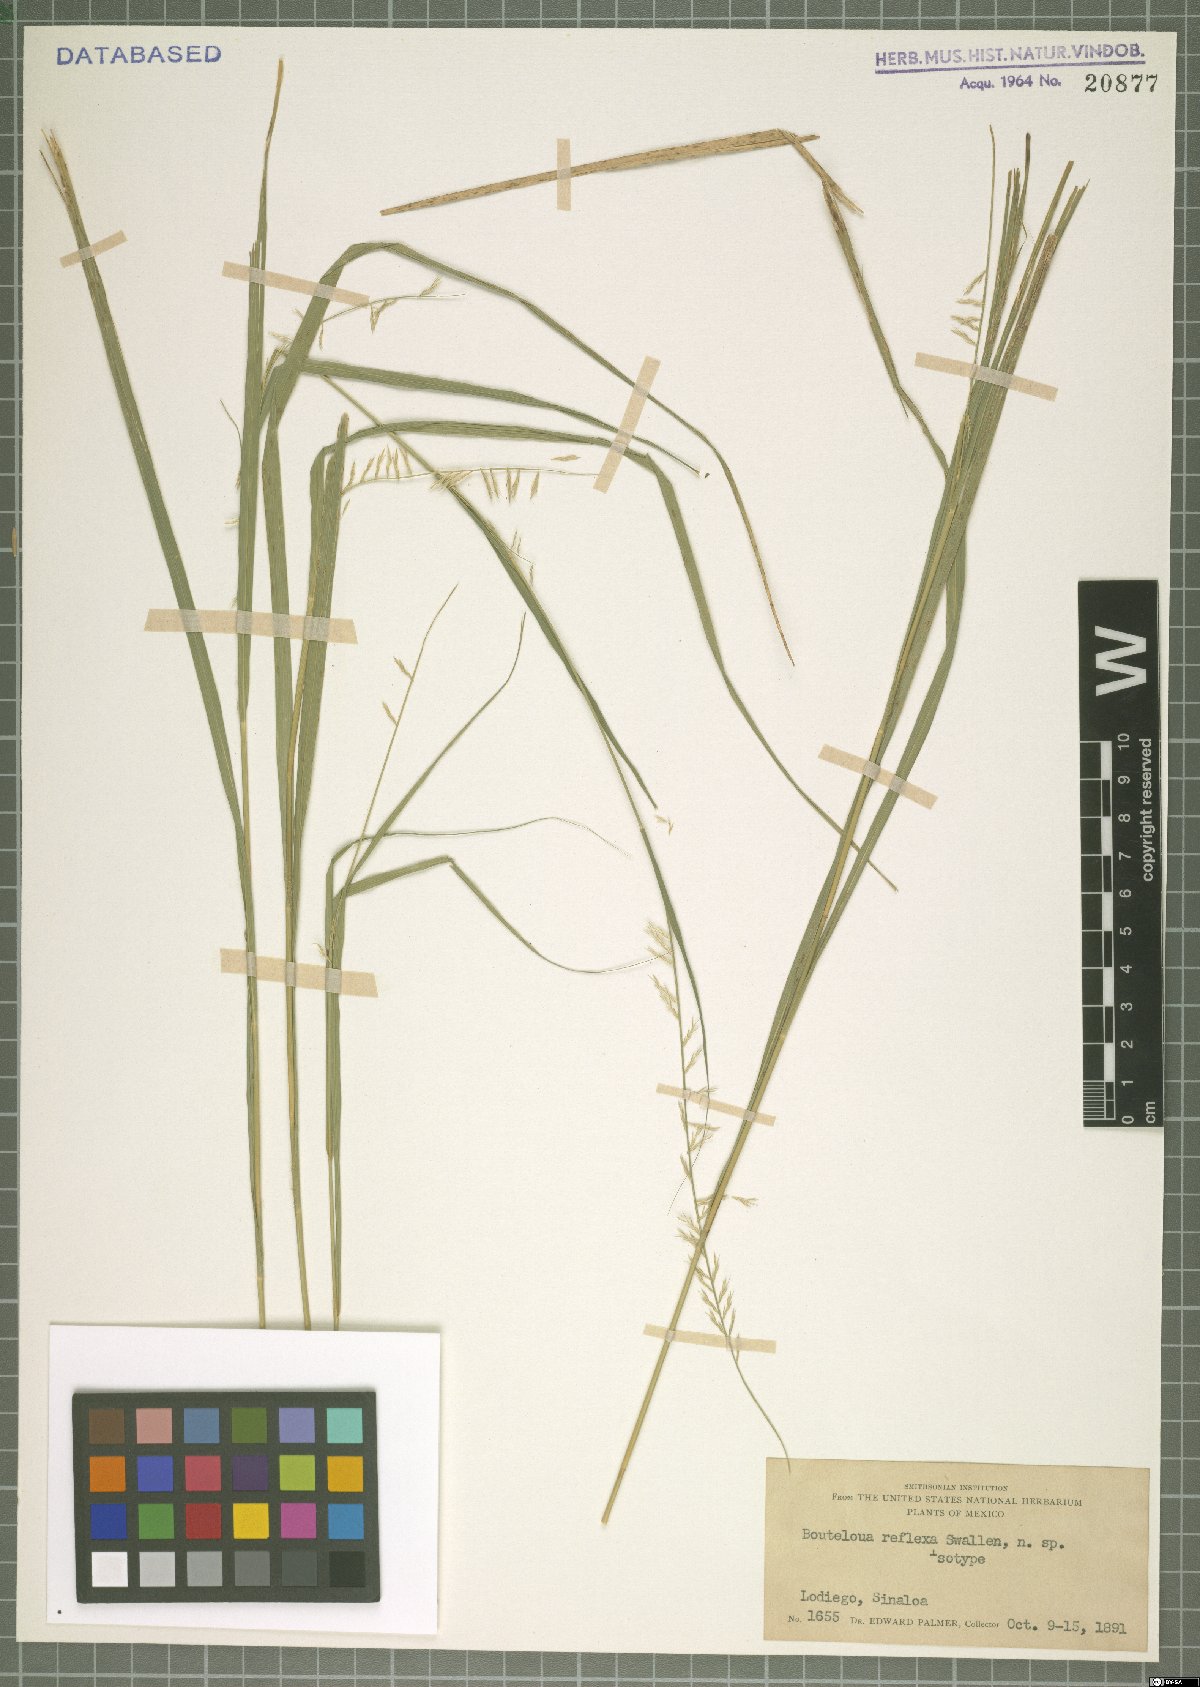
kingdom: Plantae
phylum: Tracheophyta
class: Liliopsida
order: Poales
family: Poaceae
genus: Bouteloua
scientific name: Bouteloua reflexa
